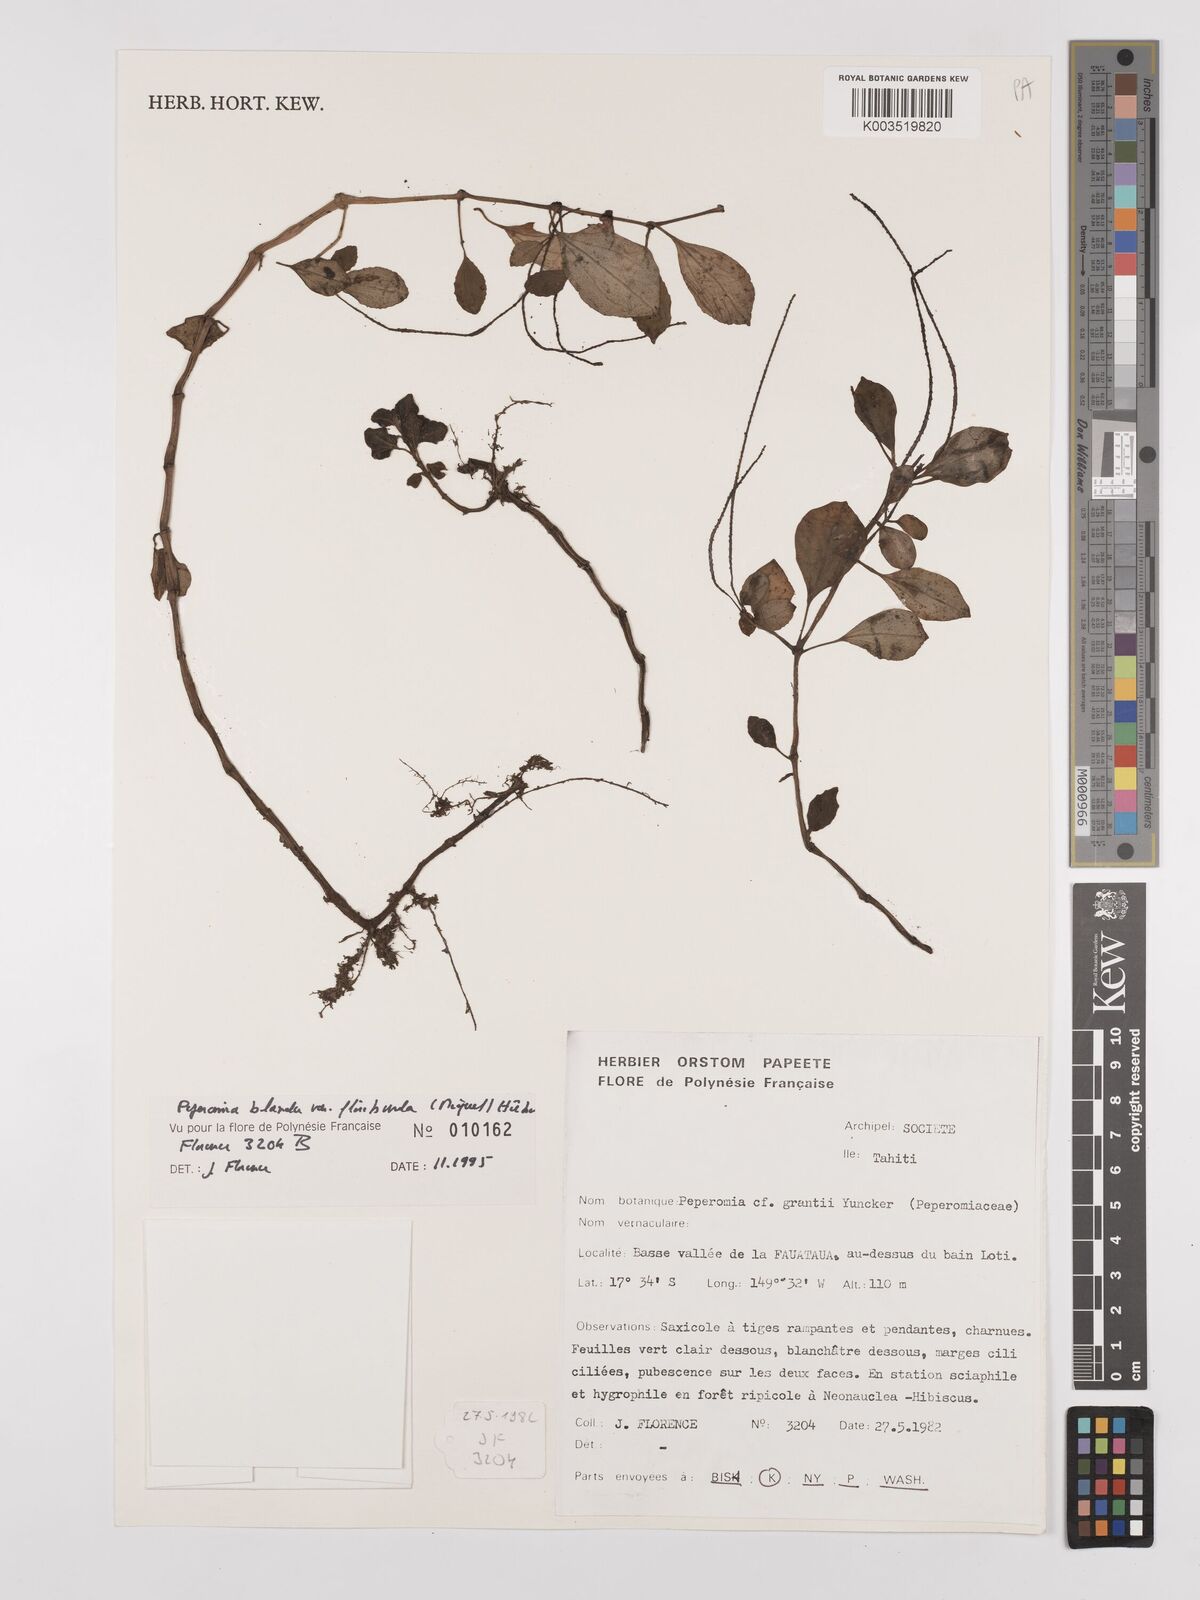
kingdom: Plantae
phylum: Tracheophyta
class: Magnoliopsida
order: Piperales
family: Piperaceae
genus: Peperomia
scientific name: Peperomia leptostachya
